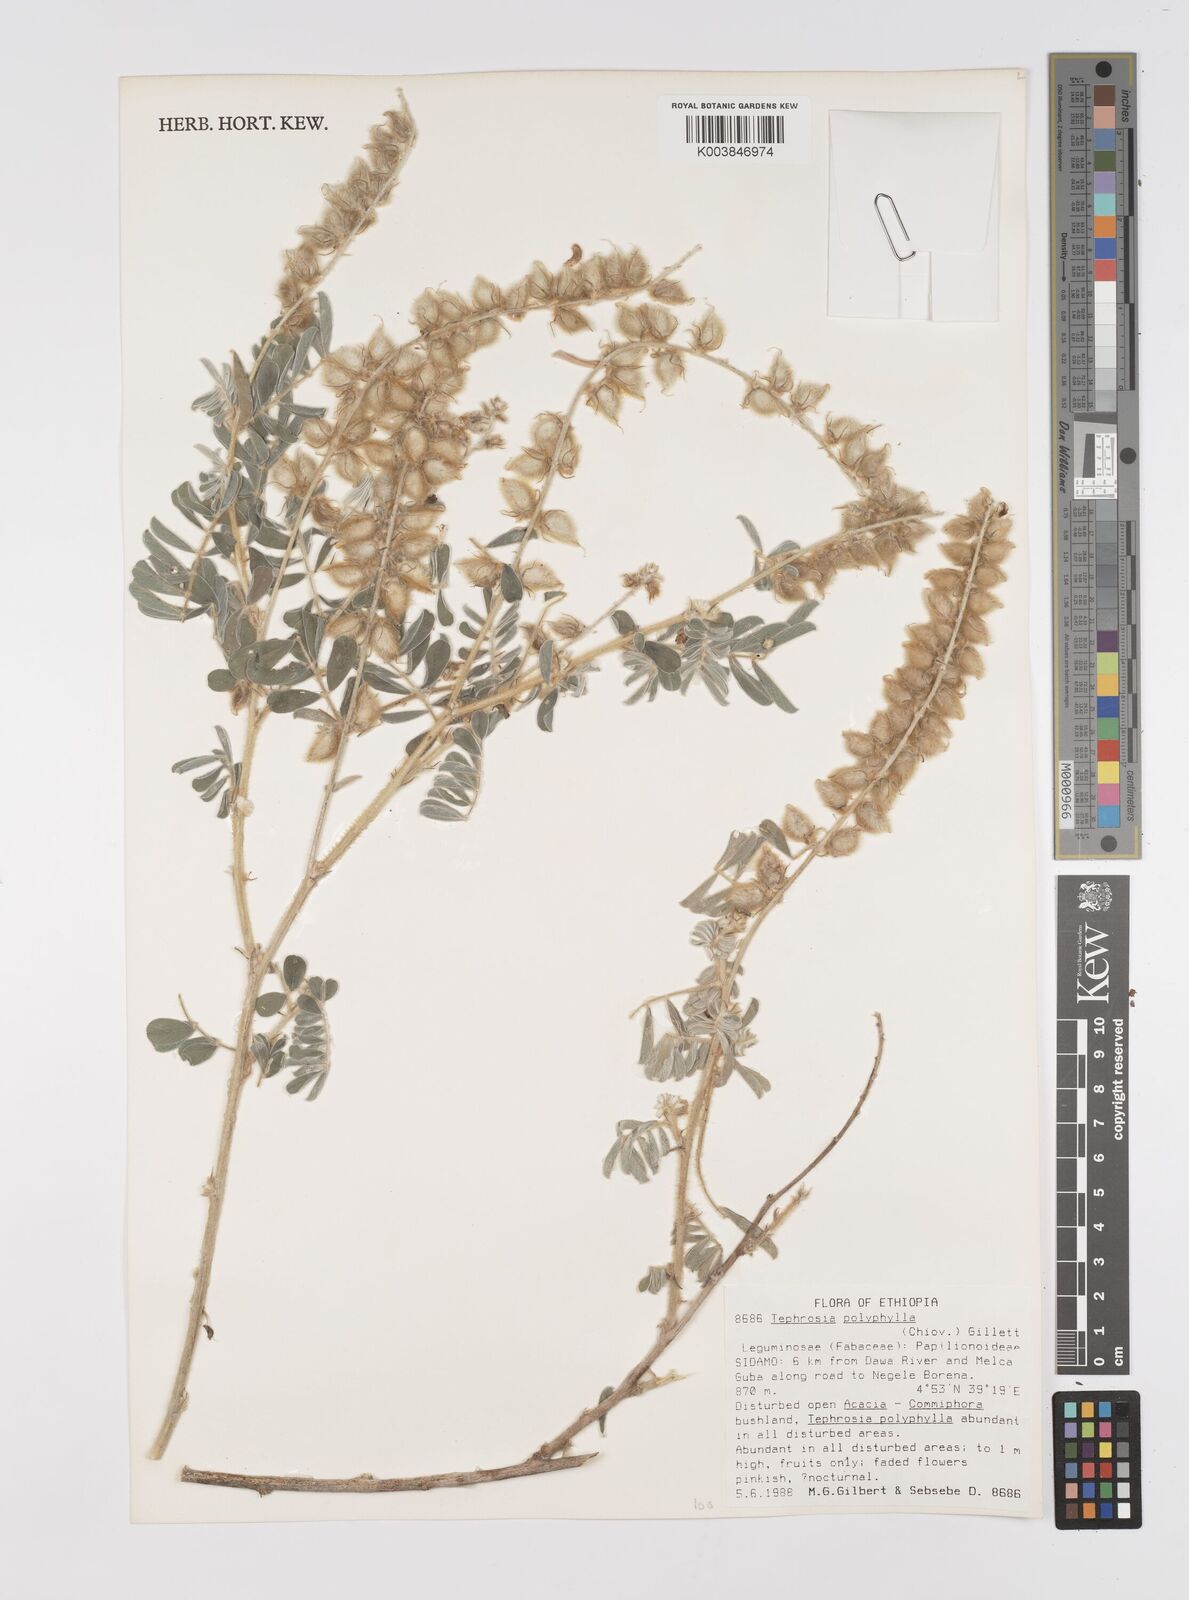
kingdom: Plantae
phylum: Tracheophyta
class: Magnoliopsida
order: Fabales
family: Fabaceae
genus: Tephrosia
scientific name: Tephrosia polyphylla
